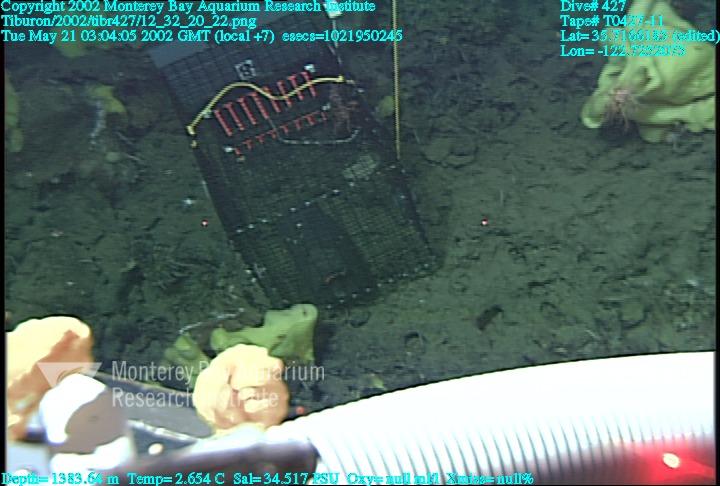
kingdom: Animalia
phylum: Porifera
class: Hexactinellida
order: Lyssacinosida
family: Rossellidae
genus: Staurocalyptus
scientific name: Staurocalyptus
